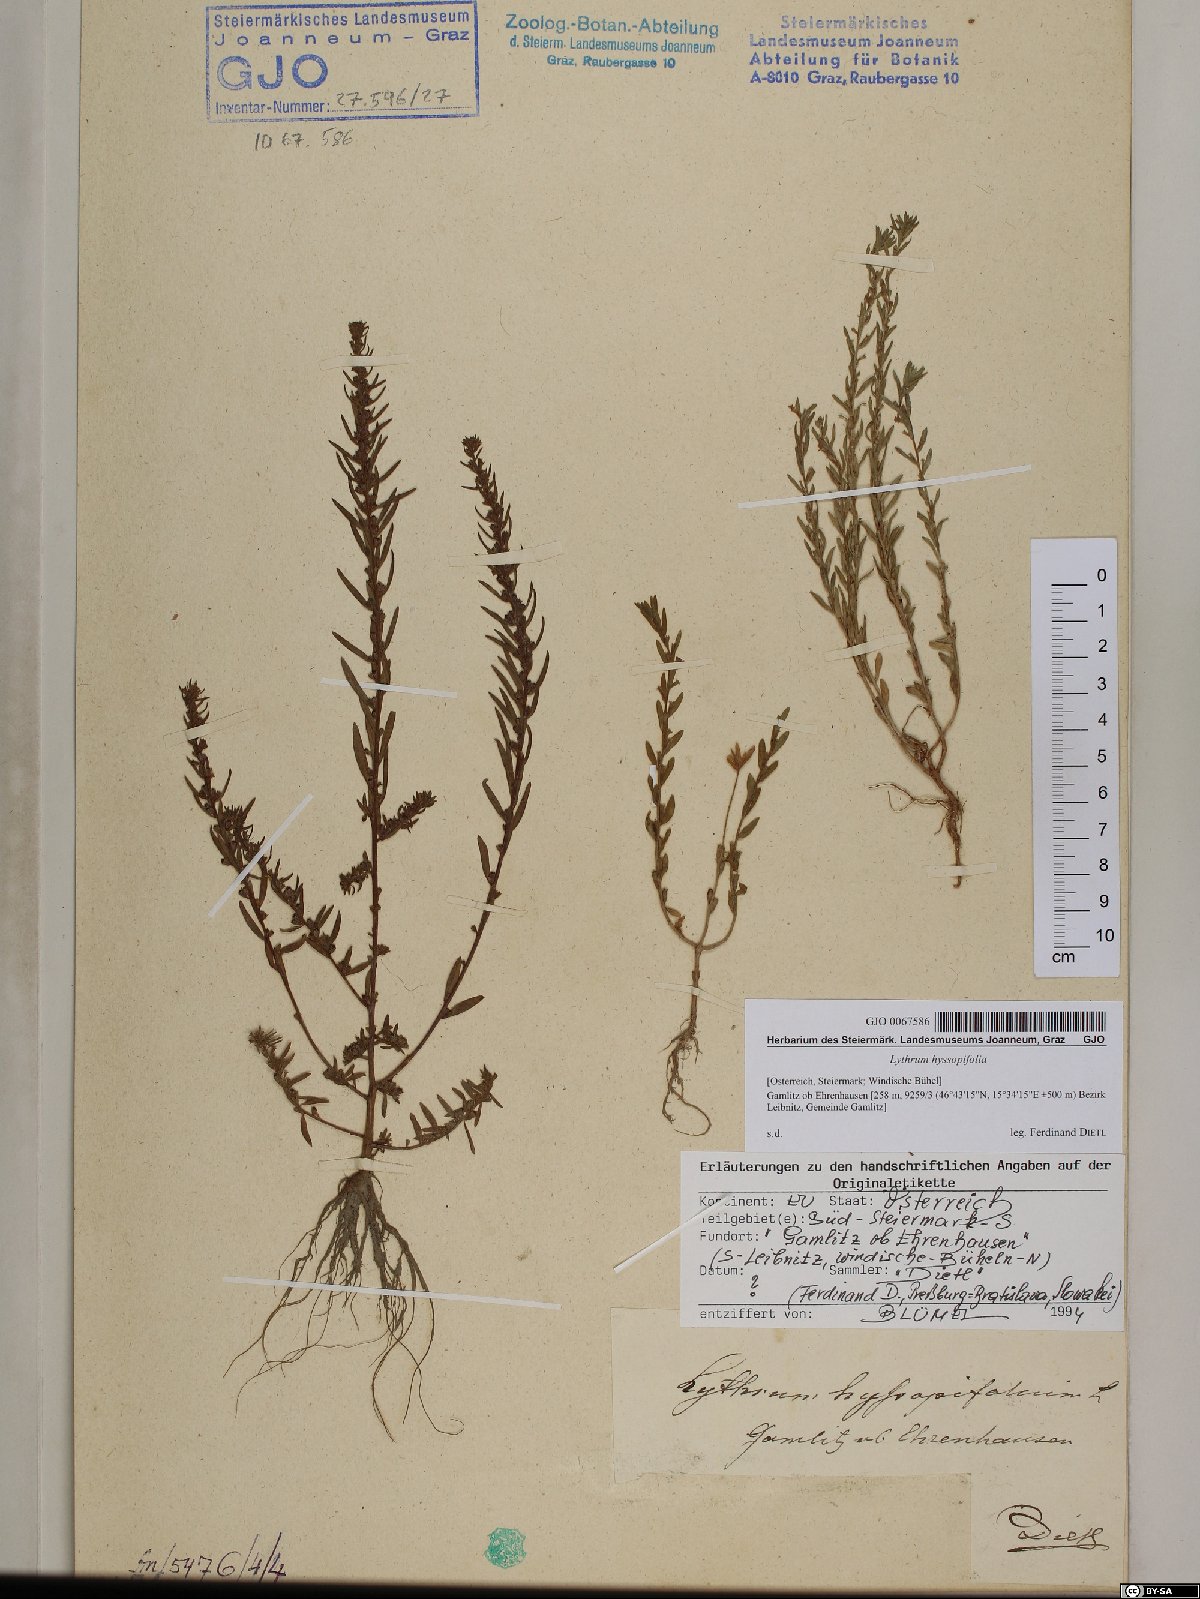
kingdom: Plantae
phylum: Tracheophyta
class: Magnoliopsida
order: Myrtales
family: Lythraceae
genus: Lythrum
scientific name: Lythrum hyssopifolia
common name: Grass-poly
